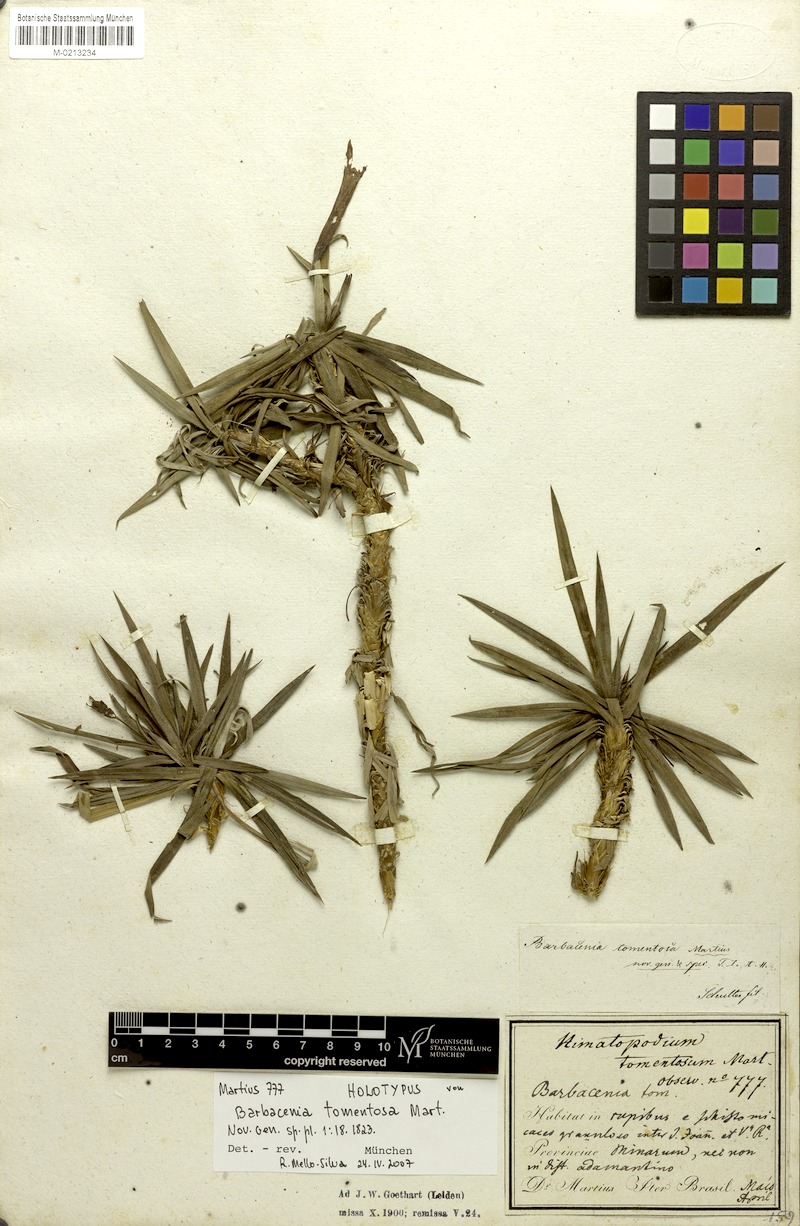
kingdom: Plantae
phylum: Tracheophyta
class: Liliopsida
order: Pandanales
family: Velloziaceae
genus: Barbacenia
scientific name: Barbacenia tomentosa
